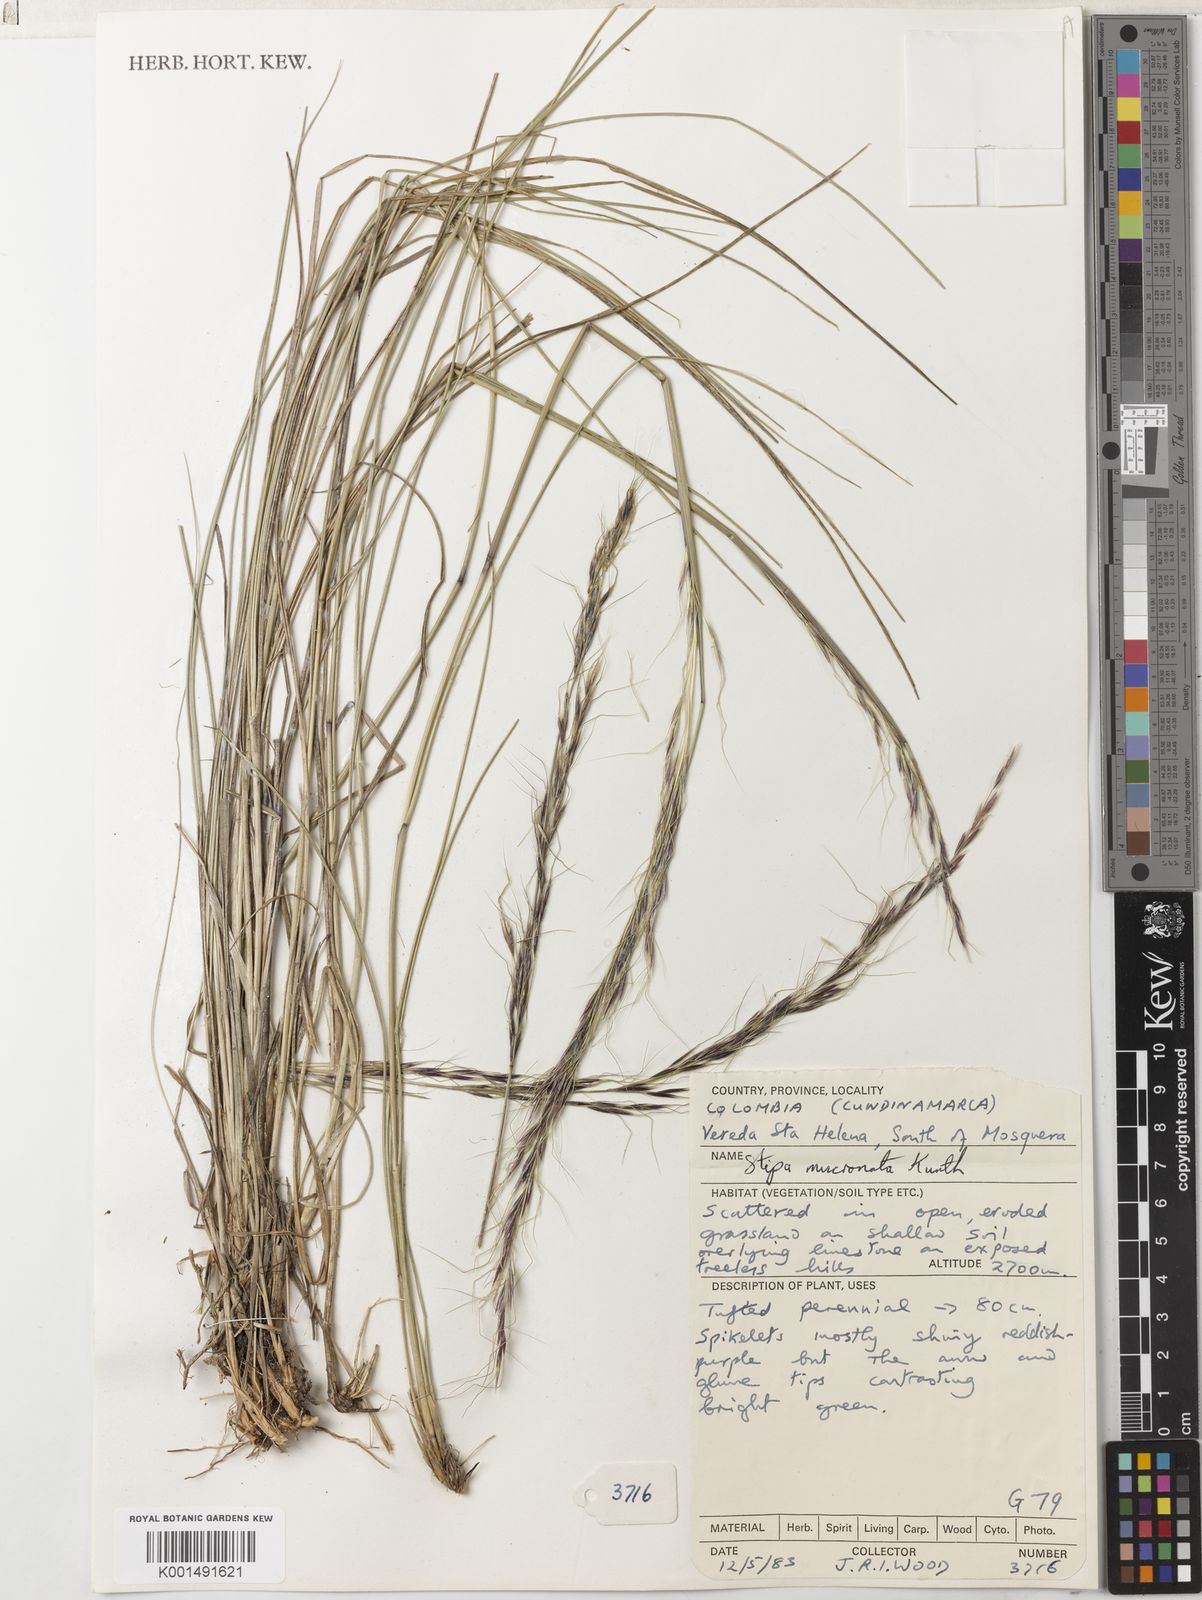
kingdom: Plantae
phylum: Tracheophyta
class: Liliopsida
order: Poales
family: Poaceae
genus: Nassella
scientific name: Nassella mucronata
